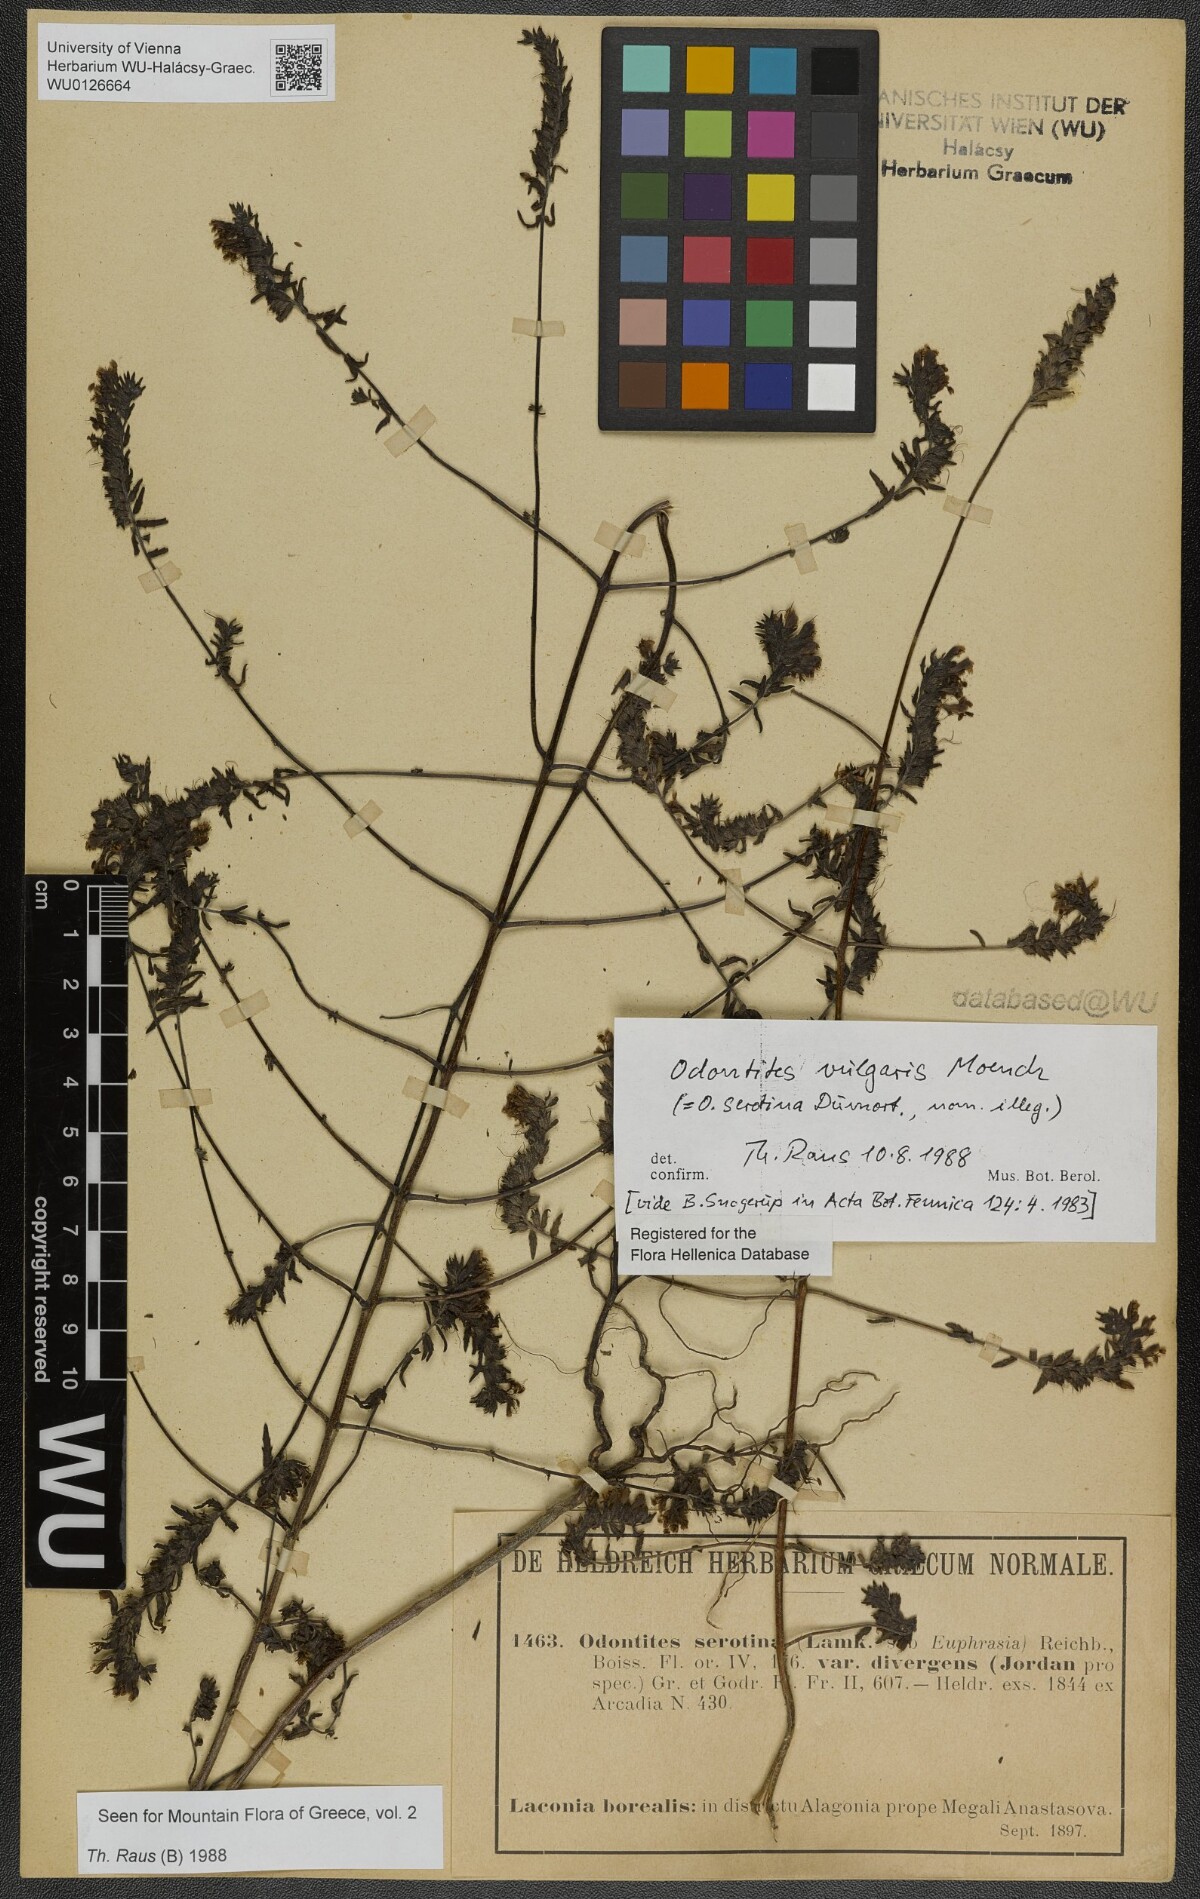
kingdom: Plantae
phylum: Tracheophyta
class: Magnoliopsida
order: Lamiales
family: Orobanchaceae
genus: Odontites
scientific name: Odontites vulgaris
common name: Broomrape
